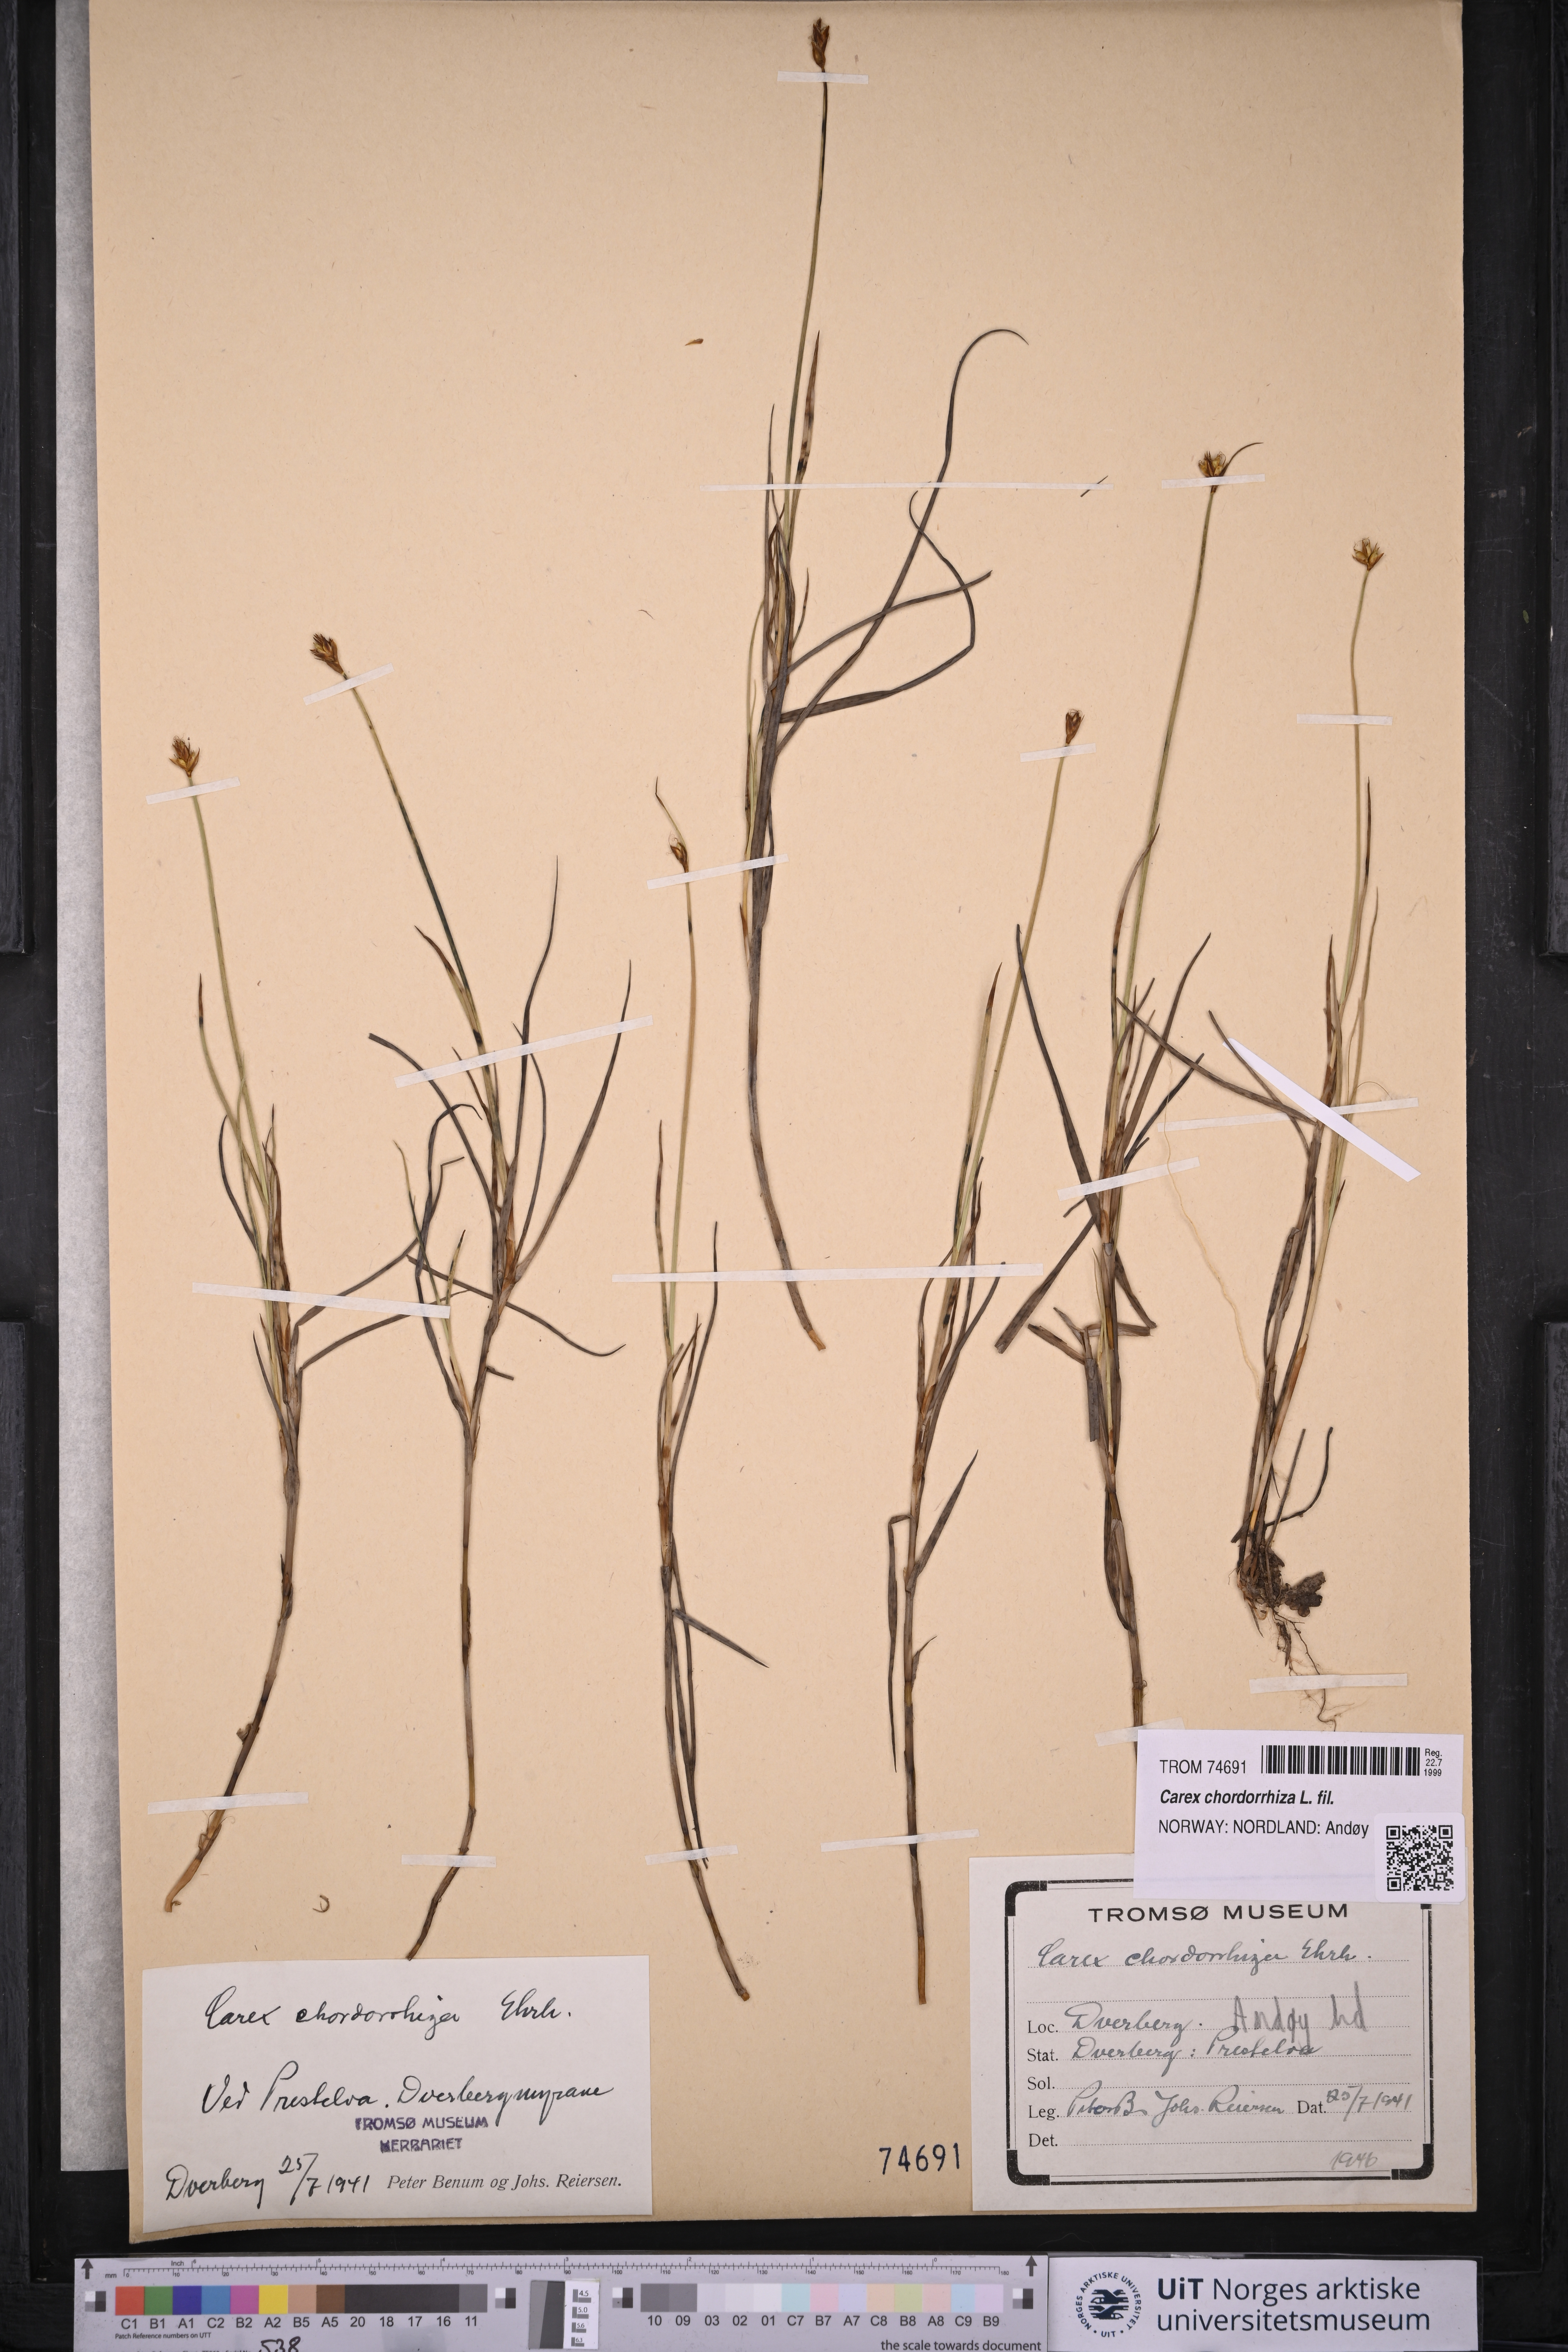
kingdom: Plantae
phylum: Tracheophyta
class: Liliopsida
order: Poales
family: Cyperaceae
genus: Carex
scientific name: Carex chordorrhiza
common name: String sedge
